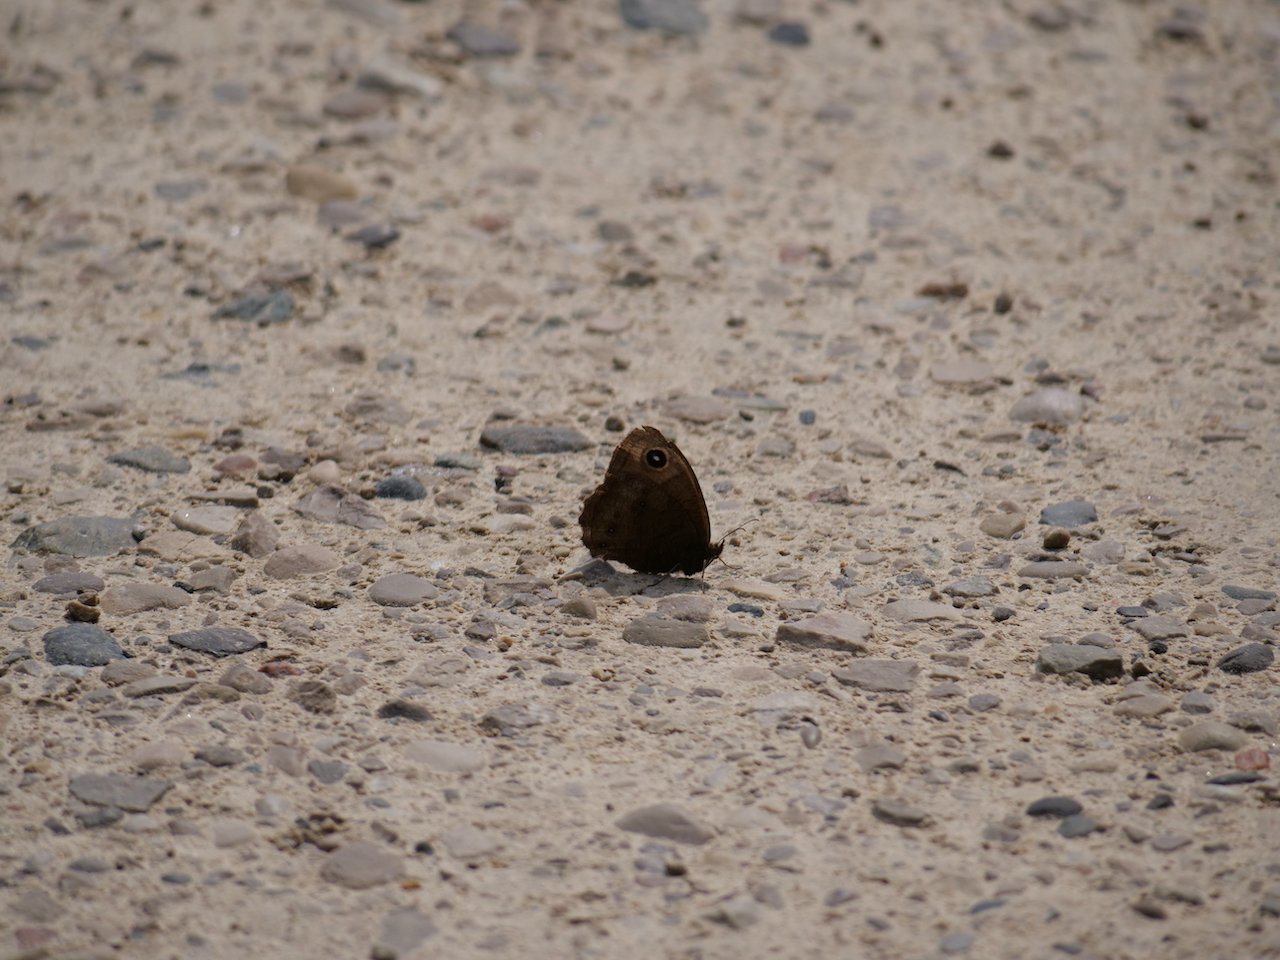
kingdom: Animalia
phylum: Arthropoda
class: Insecta
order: Lepidoptera
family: Nymphalidae
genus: Cercyonis
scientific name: Cercyonis pegala
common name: Common Wood-Nymph
